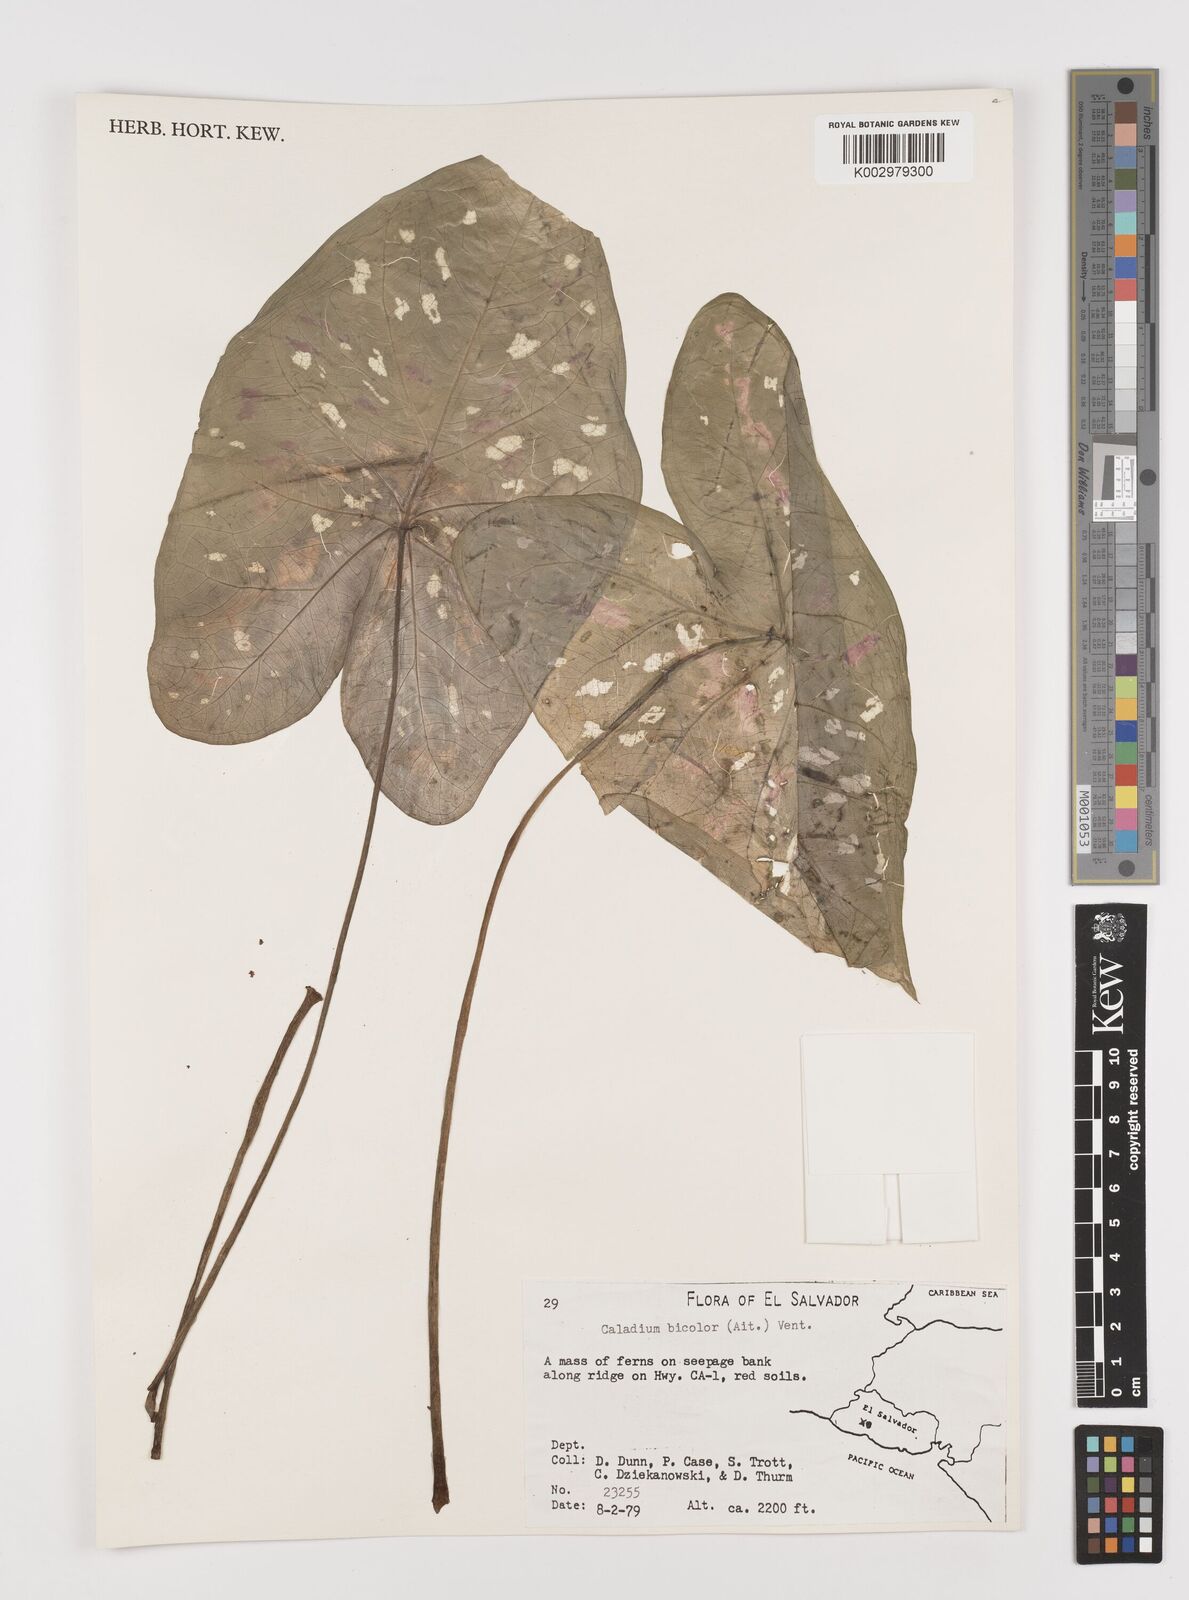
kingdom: Plantae
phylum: Tracheophyta
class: Liliopsida
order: Alismatales
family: Araceae
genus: Caladium
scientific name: Caladium bicolor
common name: Artist's pallet
